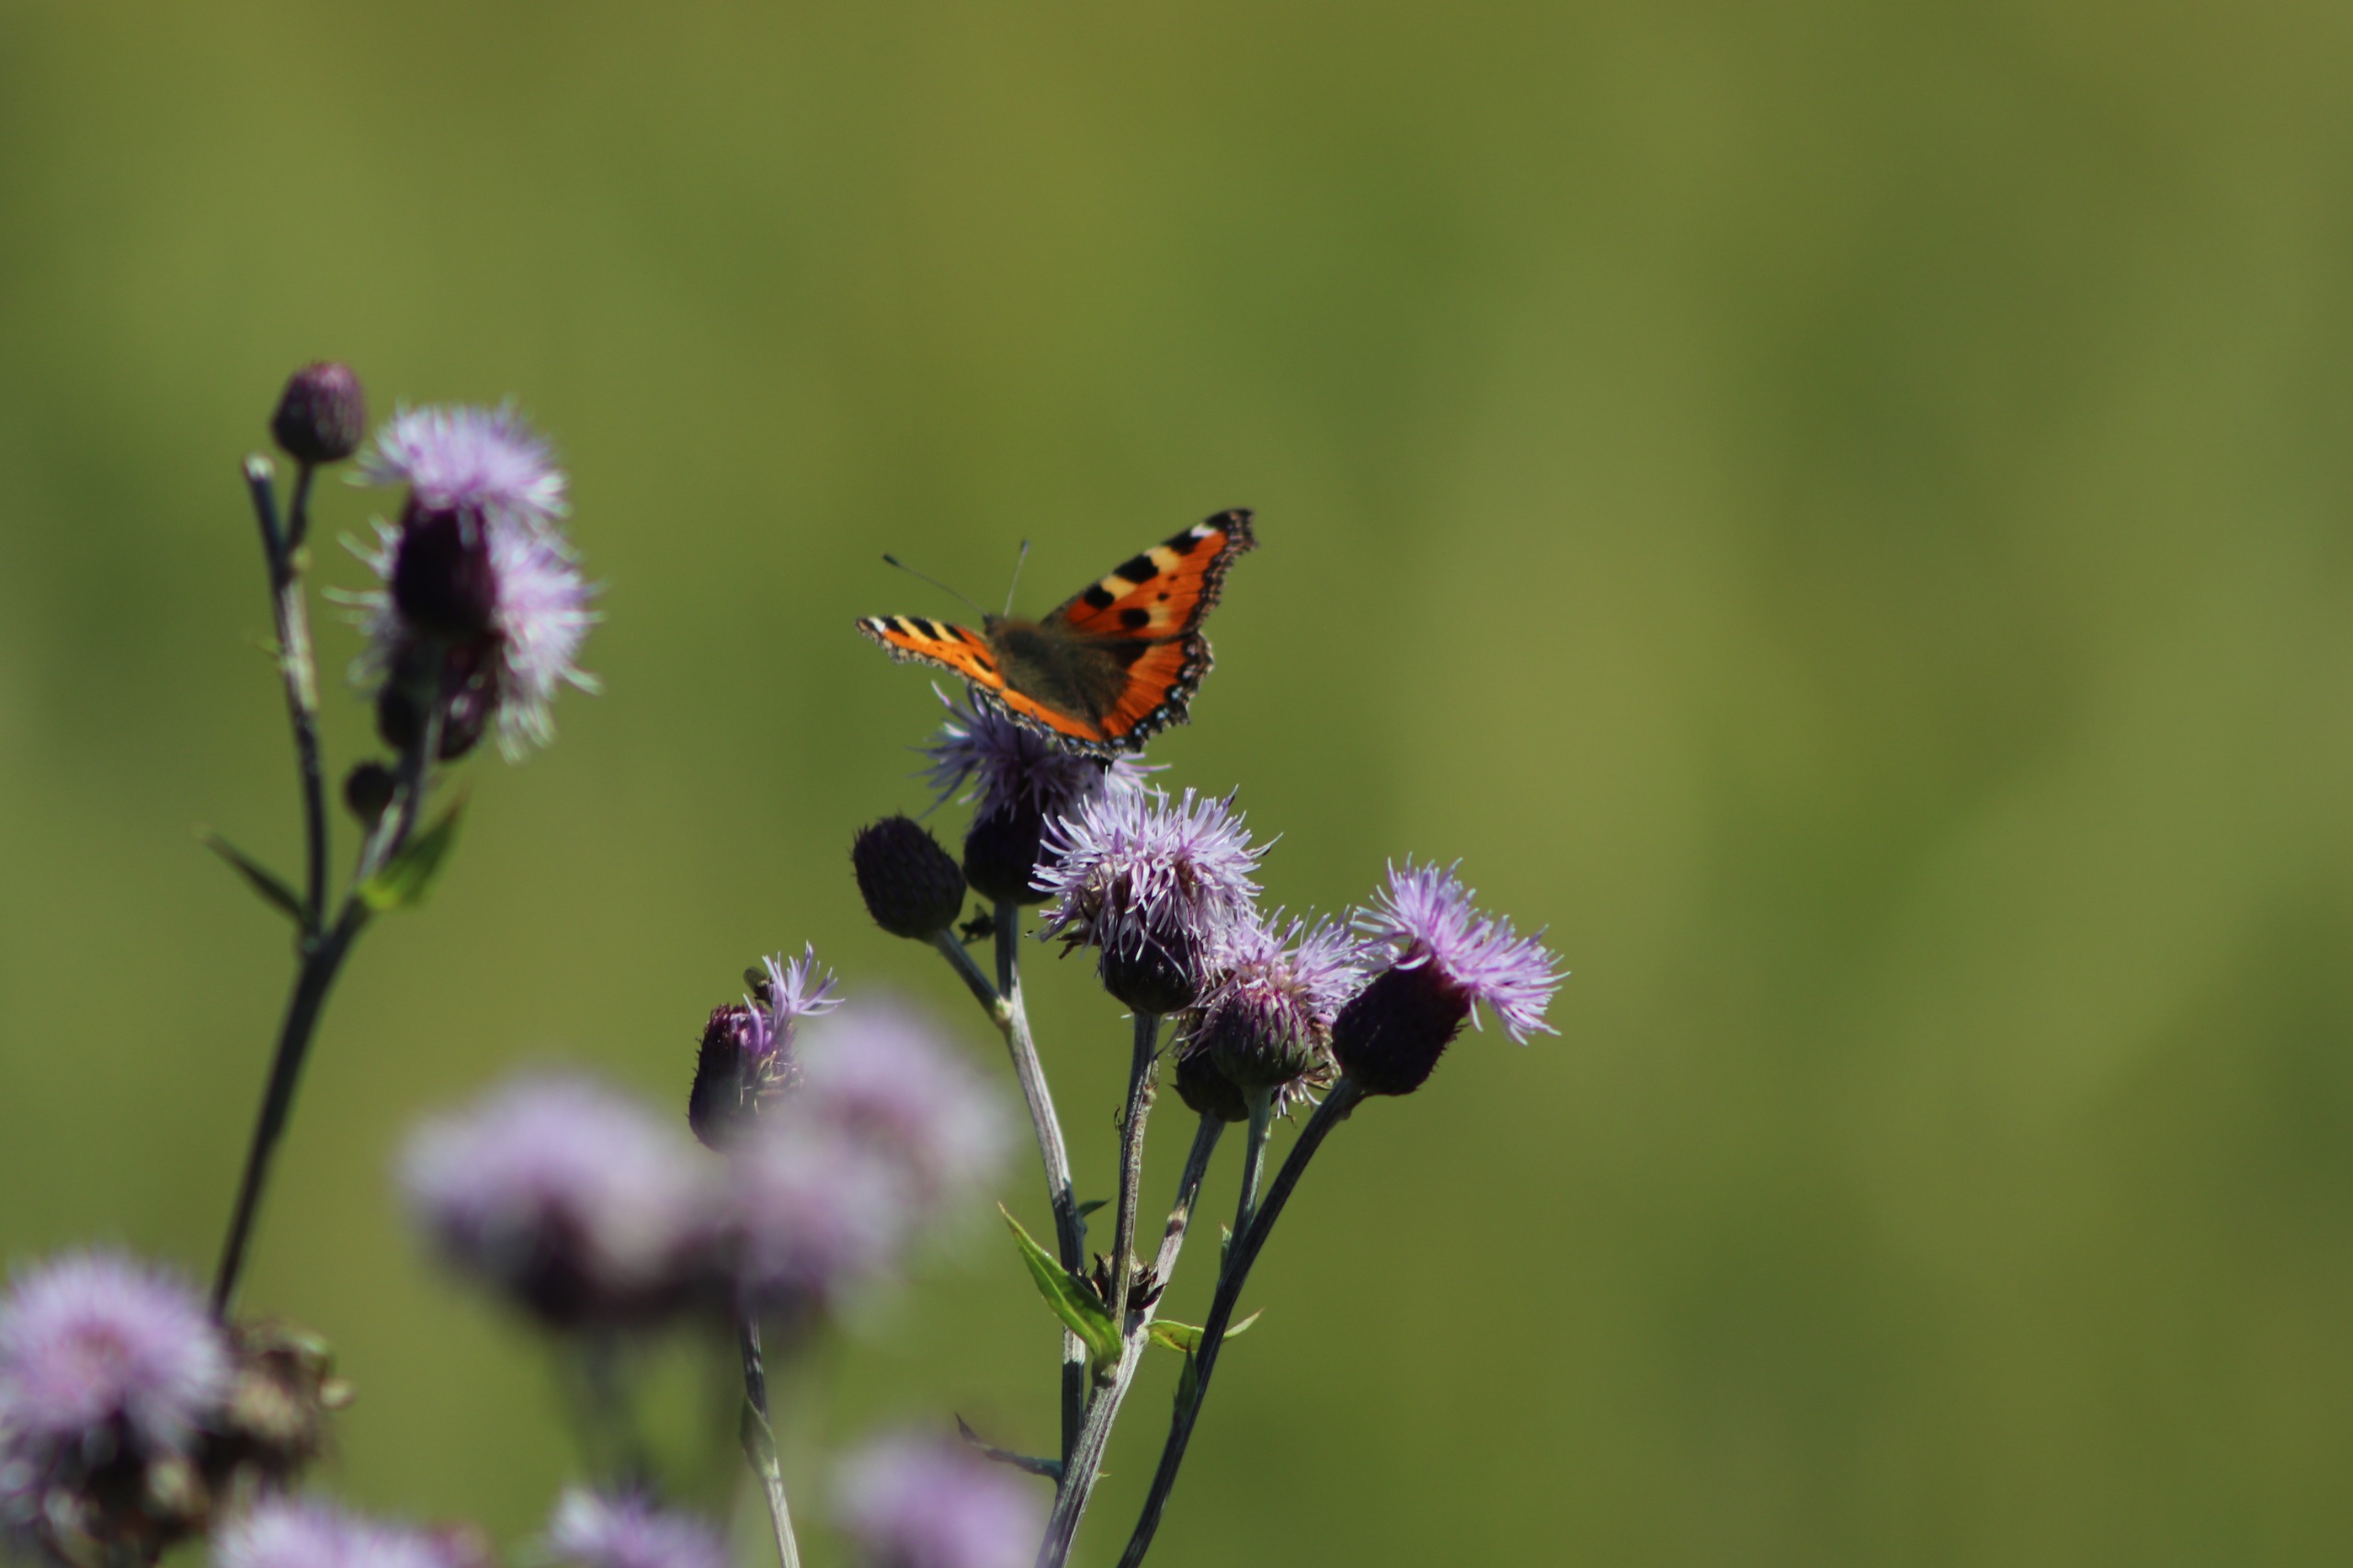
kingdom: Animalia
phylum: Arthropoda
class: Insecta
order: Lepidoptera
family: Nymphalidae
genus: Aglais
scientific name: Aglais urticae
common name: Nældens takvinge
